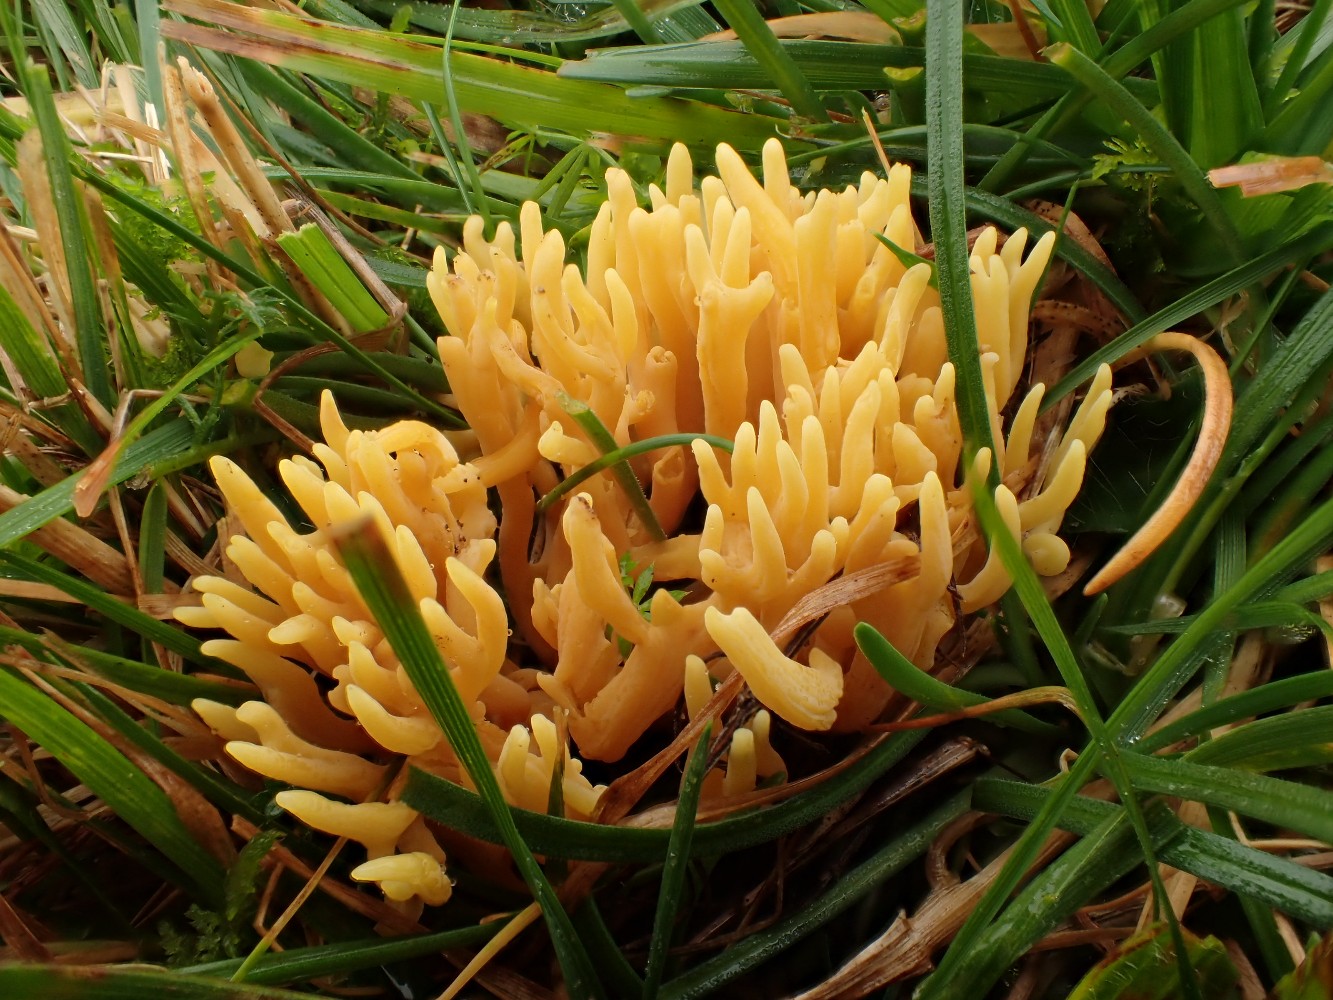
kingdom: Fungi
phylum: Basidiomycota
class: Agaricomycetes
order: Agaricales
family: Clavariaceae
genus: Clavulinopsis
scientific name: Clavulinopsis corniculata
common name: eng-køllesvamp
